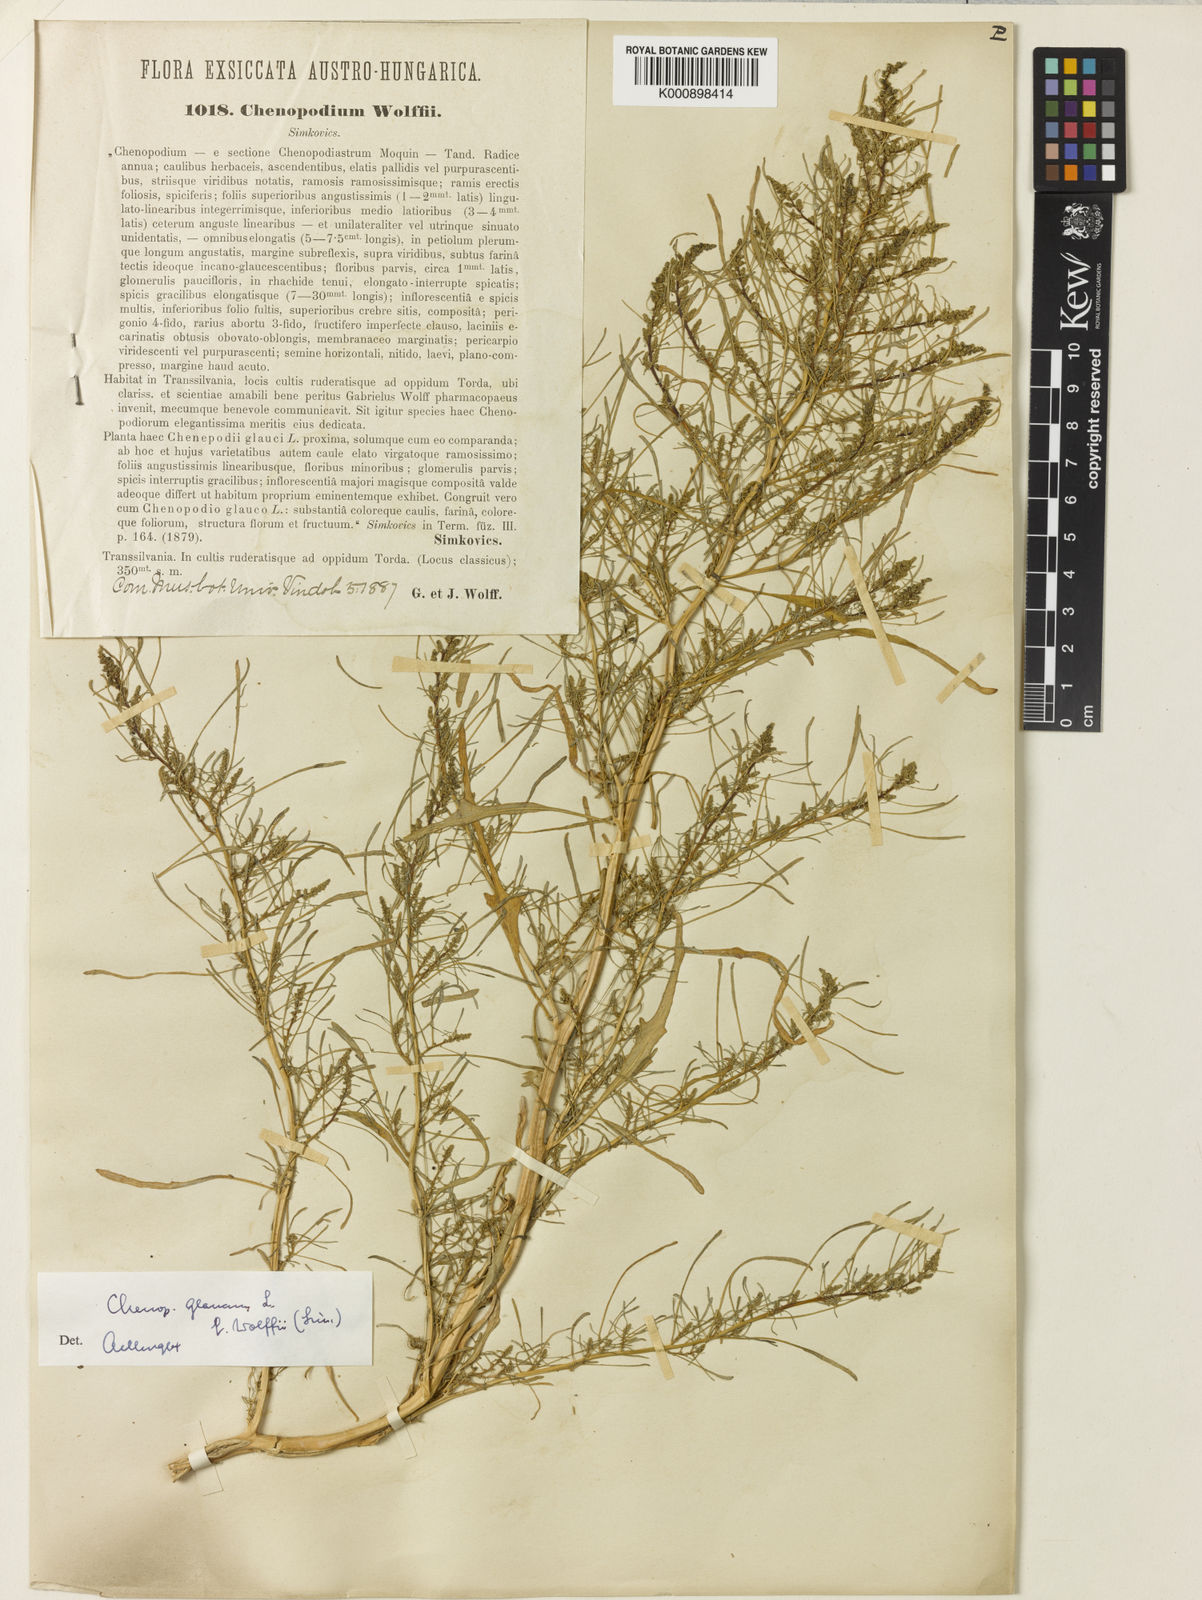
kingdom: Plantae
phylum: Tracheophyta
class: Magnoliopsida
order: Caryophyllales
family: Amaranthaceae
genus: Oxybasis
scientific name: Oxybasis glauca
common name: Glaucous goosefoot
